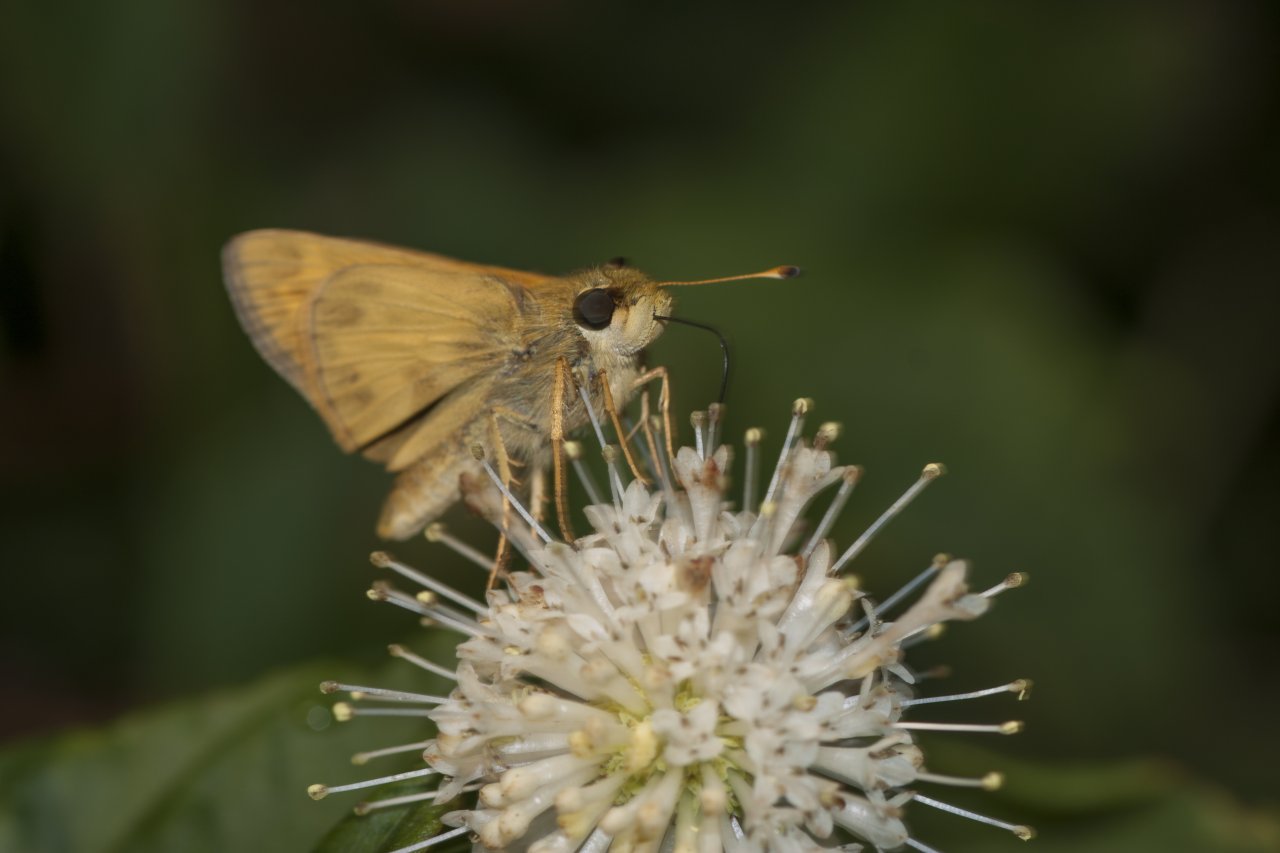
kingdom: Animalia
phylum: Arthropoda
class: Insecta
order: Lepidoptera
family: Hesperiidae
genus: Atalopedes
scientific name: Atalopedes campestris
